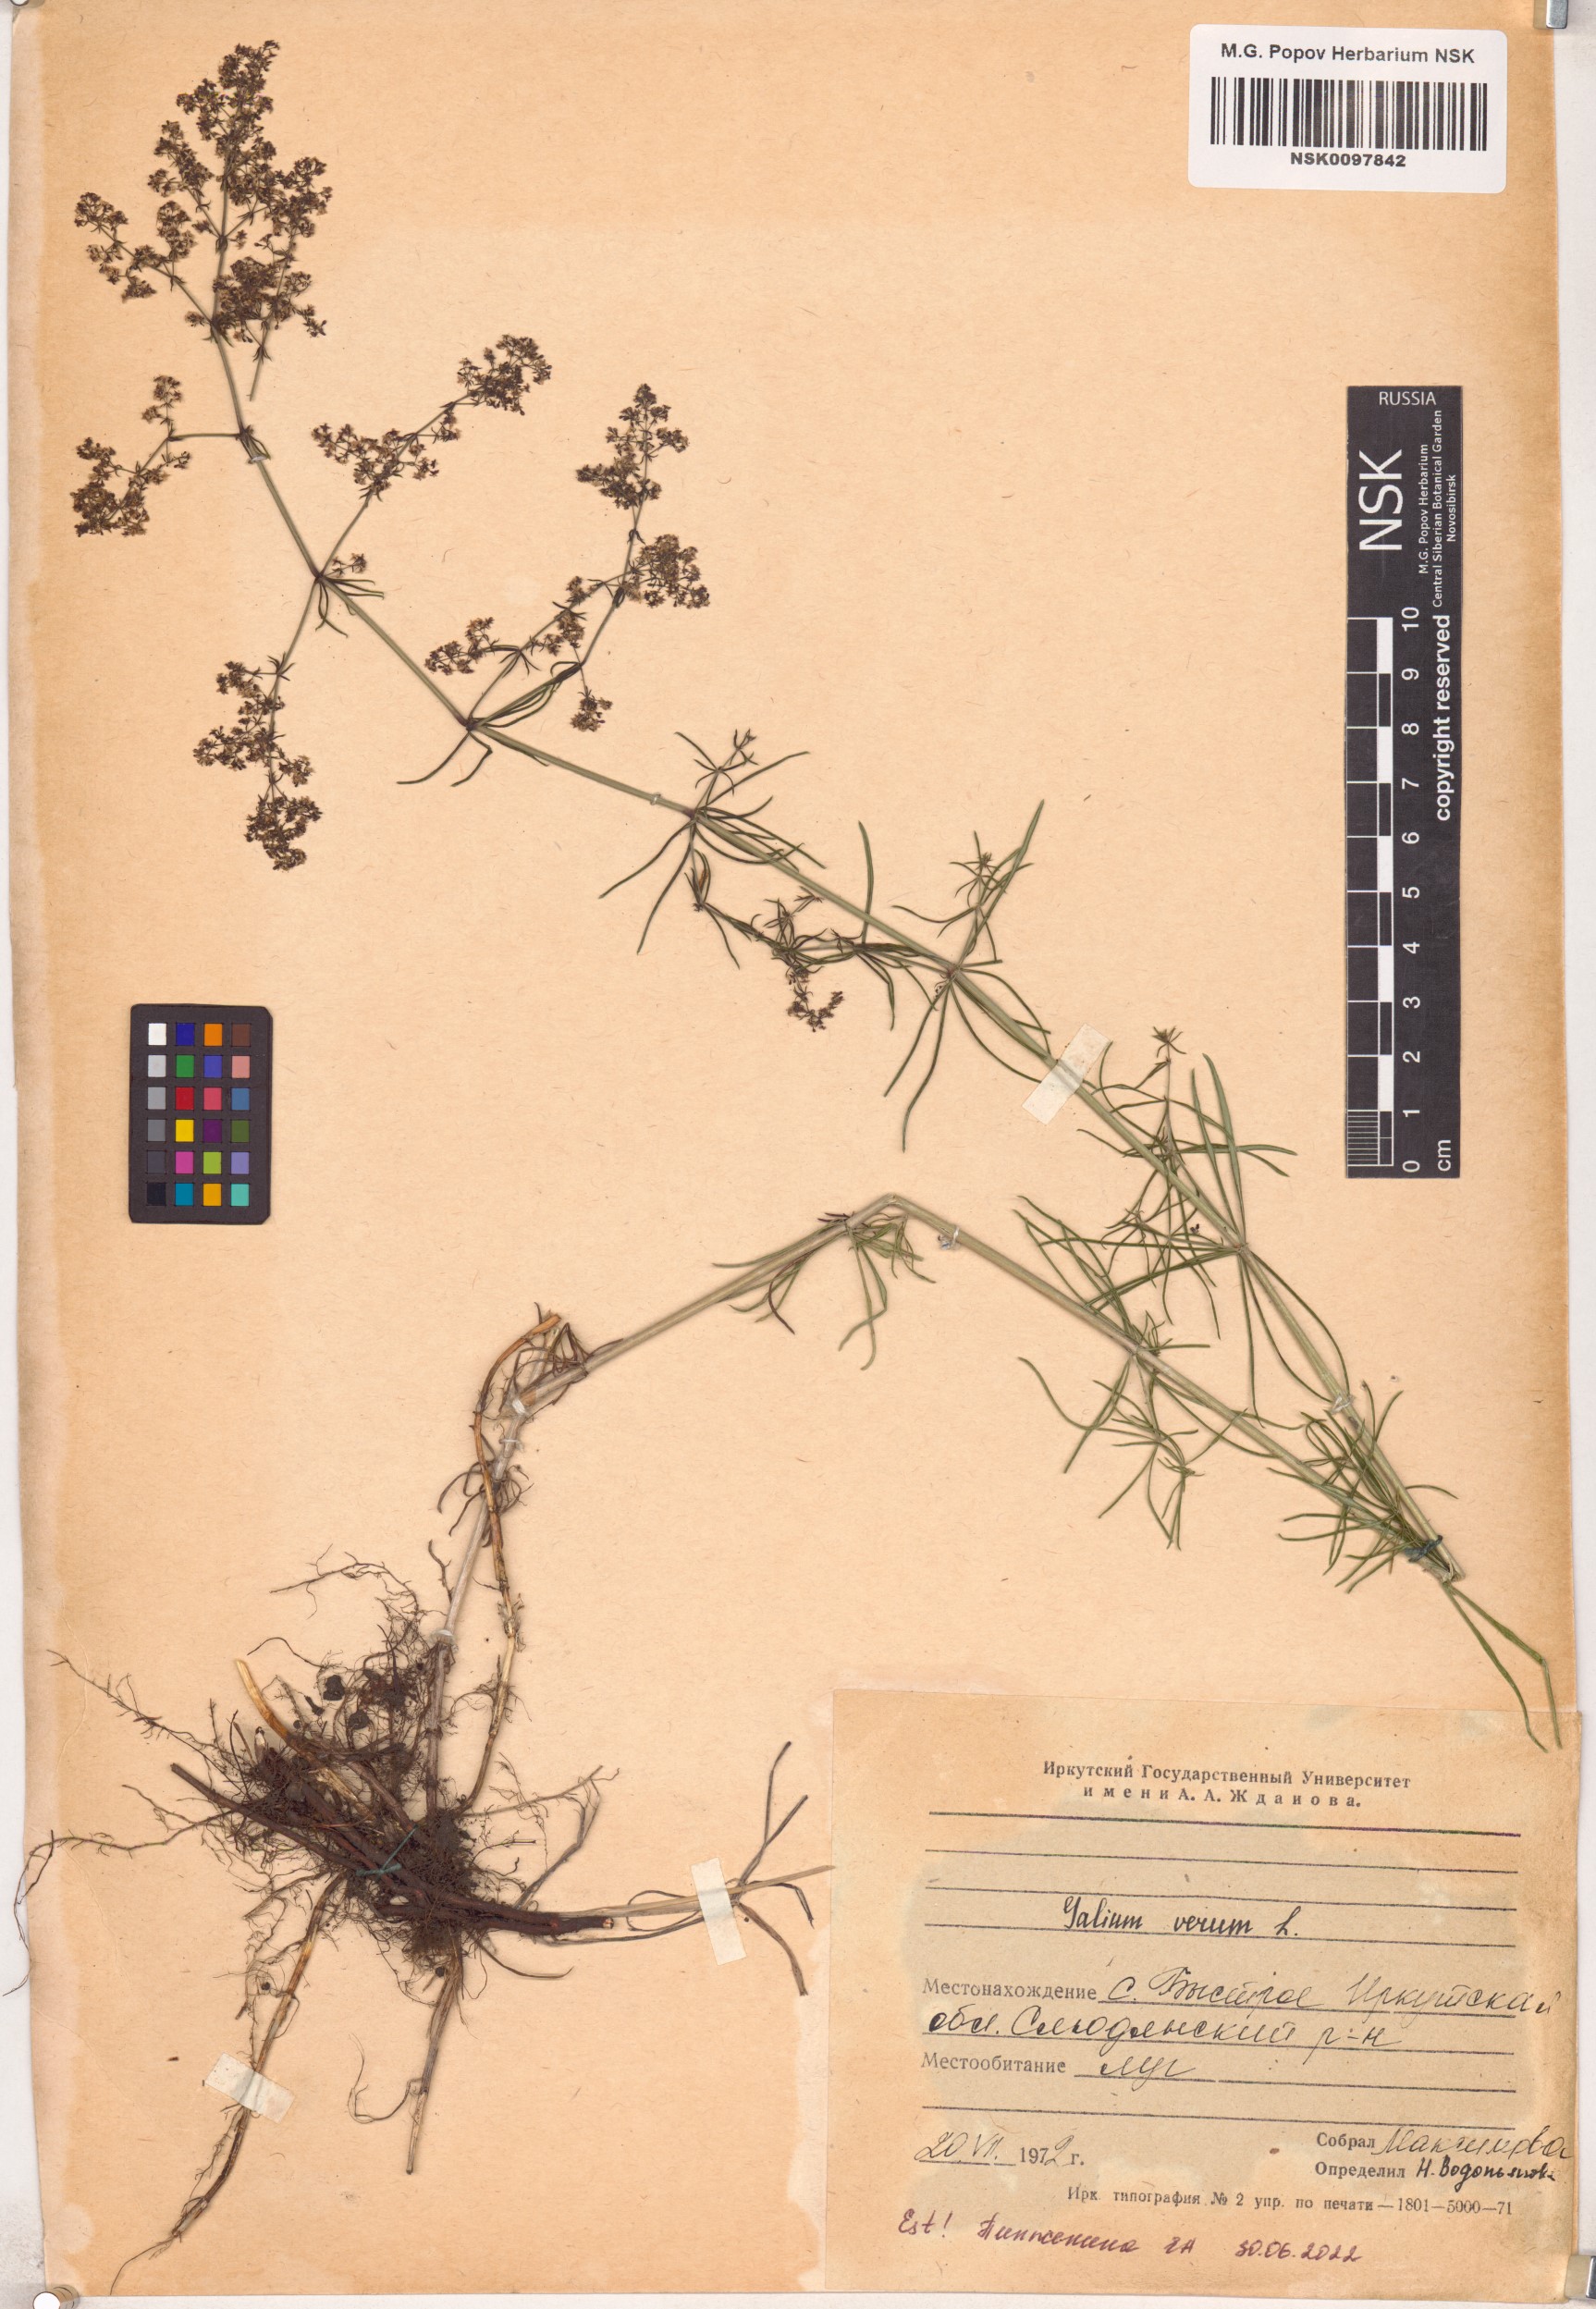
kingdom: Plantae
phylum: Tracheophyta
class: Magnoliopsida
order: Gentianales
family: Rubiaceae
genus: Galium
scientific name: Galium verum
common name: Lady's bedstraw
